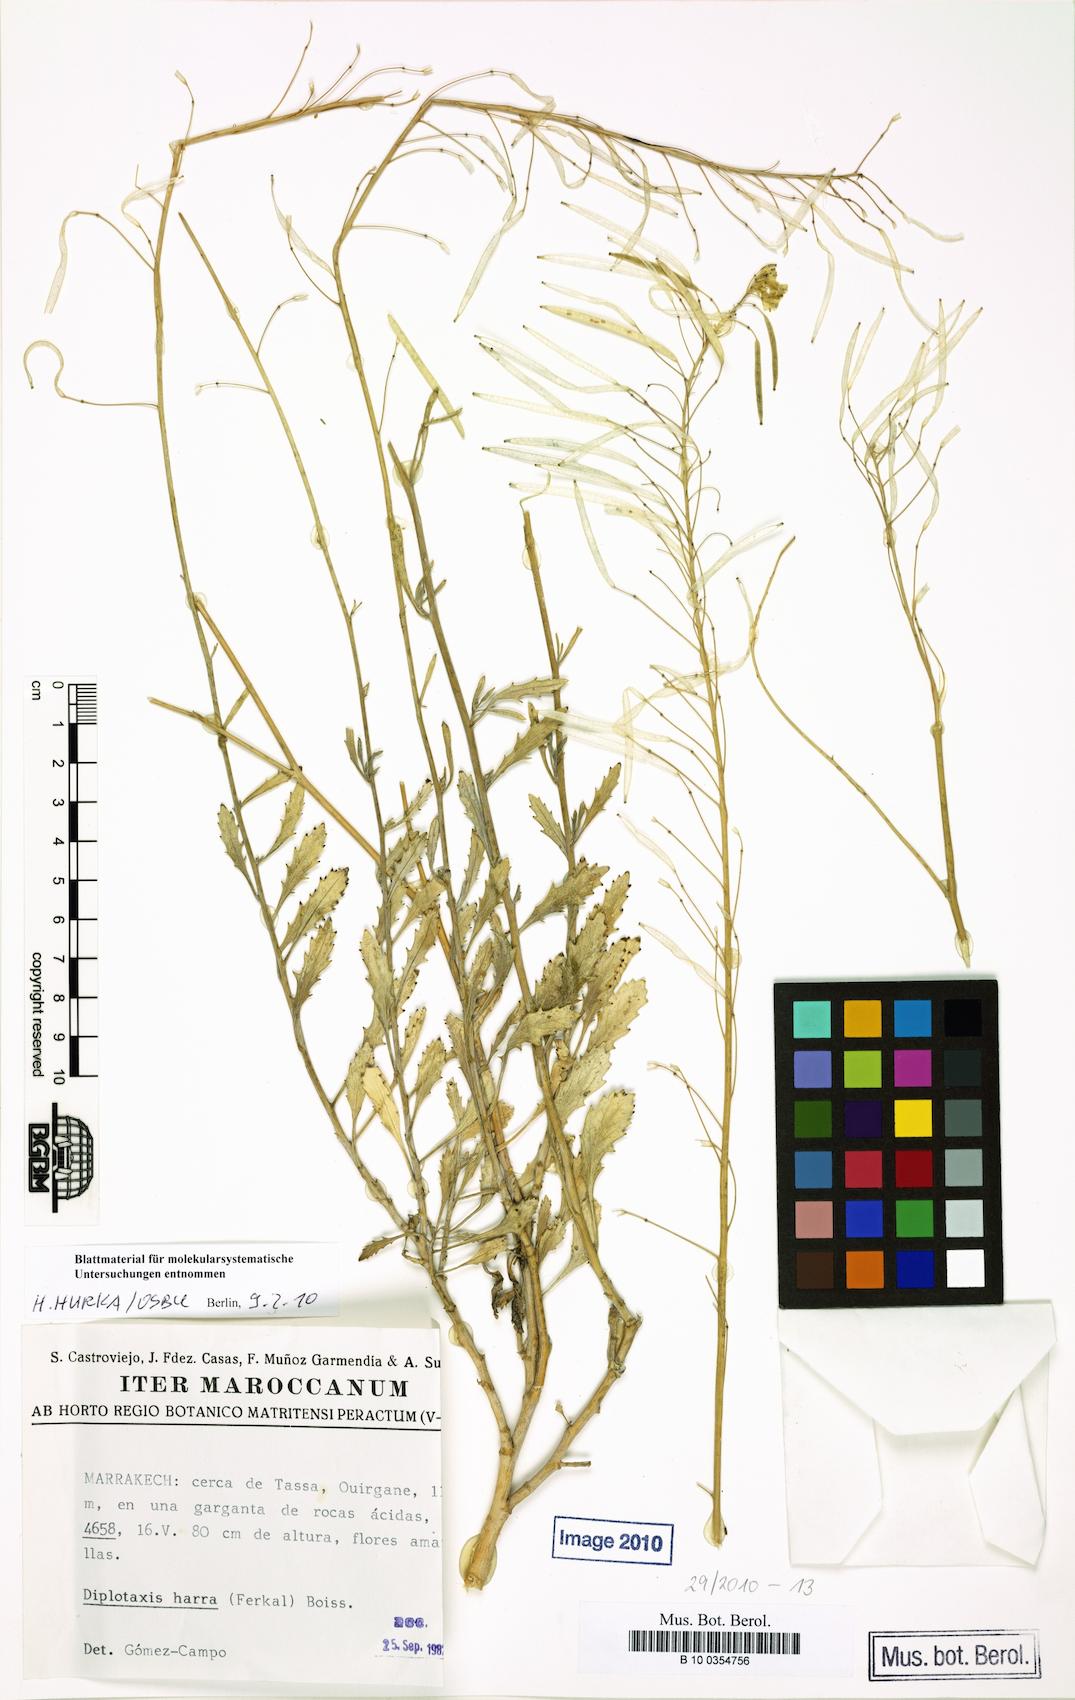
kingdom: Plantae
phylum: Tracheophyta
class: Magnoliopsida
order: Brassicales
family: Brassicaceae
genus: Diplotaxis
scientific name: Diplotaxis harra
